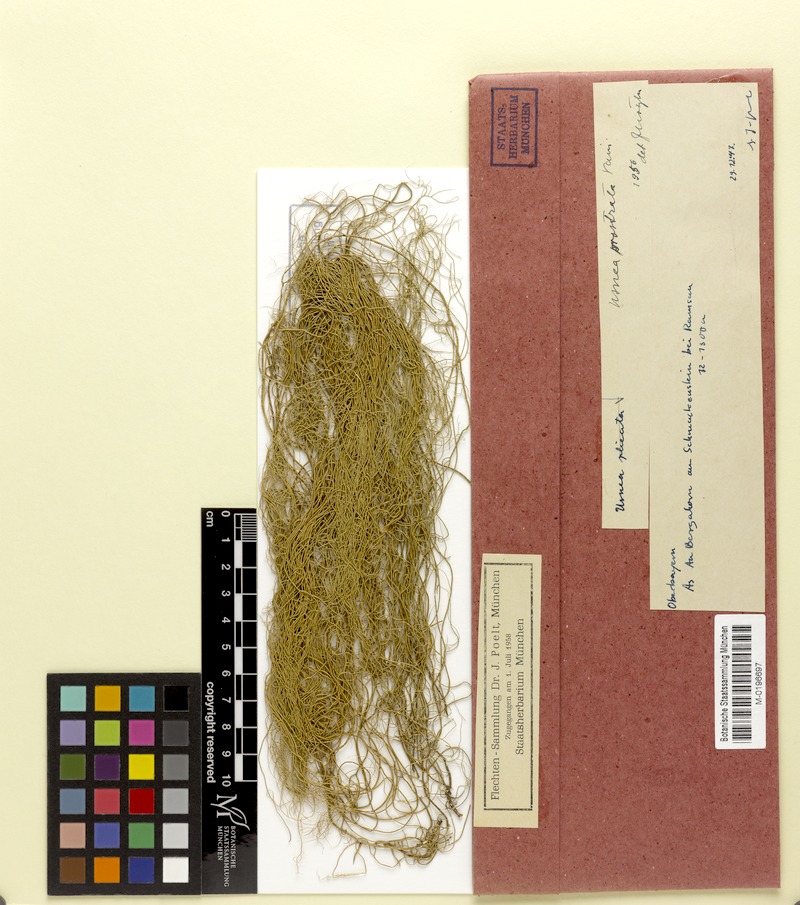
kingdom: Fungi
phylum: Ascomycota
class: Lecanoromycetes
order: Lecanorales
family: Parmeliaceae
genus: Usnea
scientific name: Usnea prostrata
